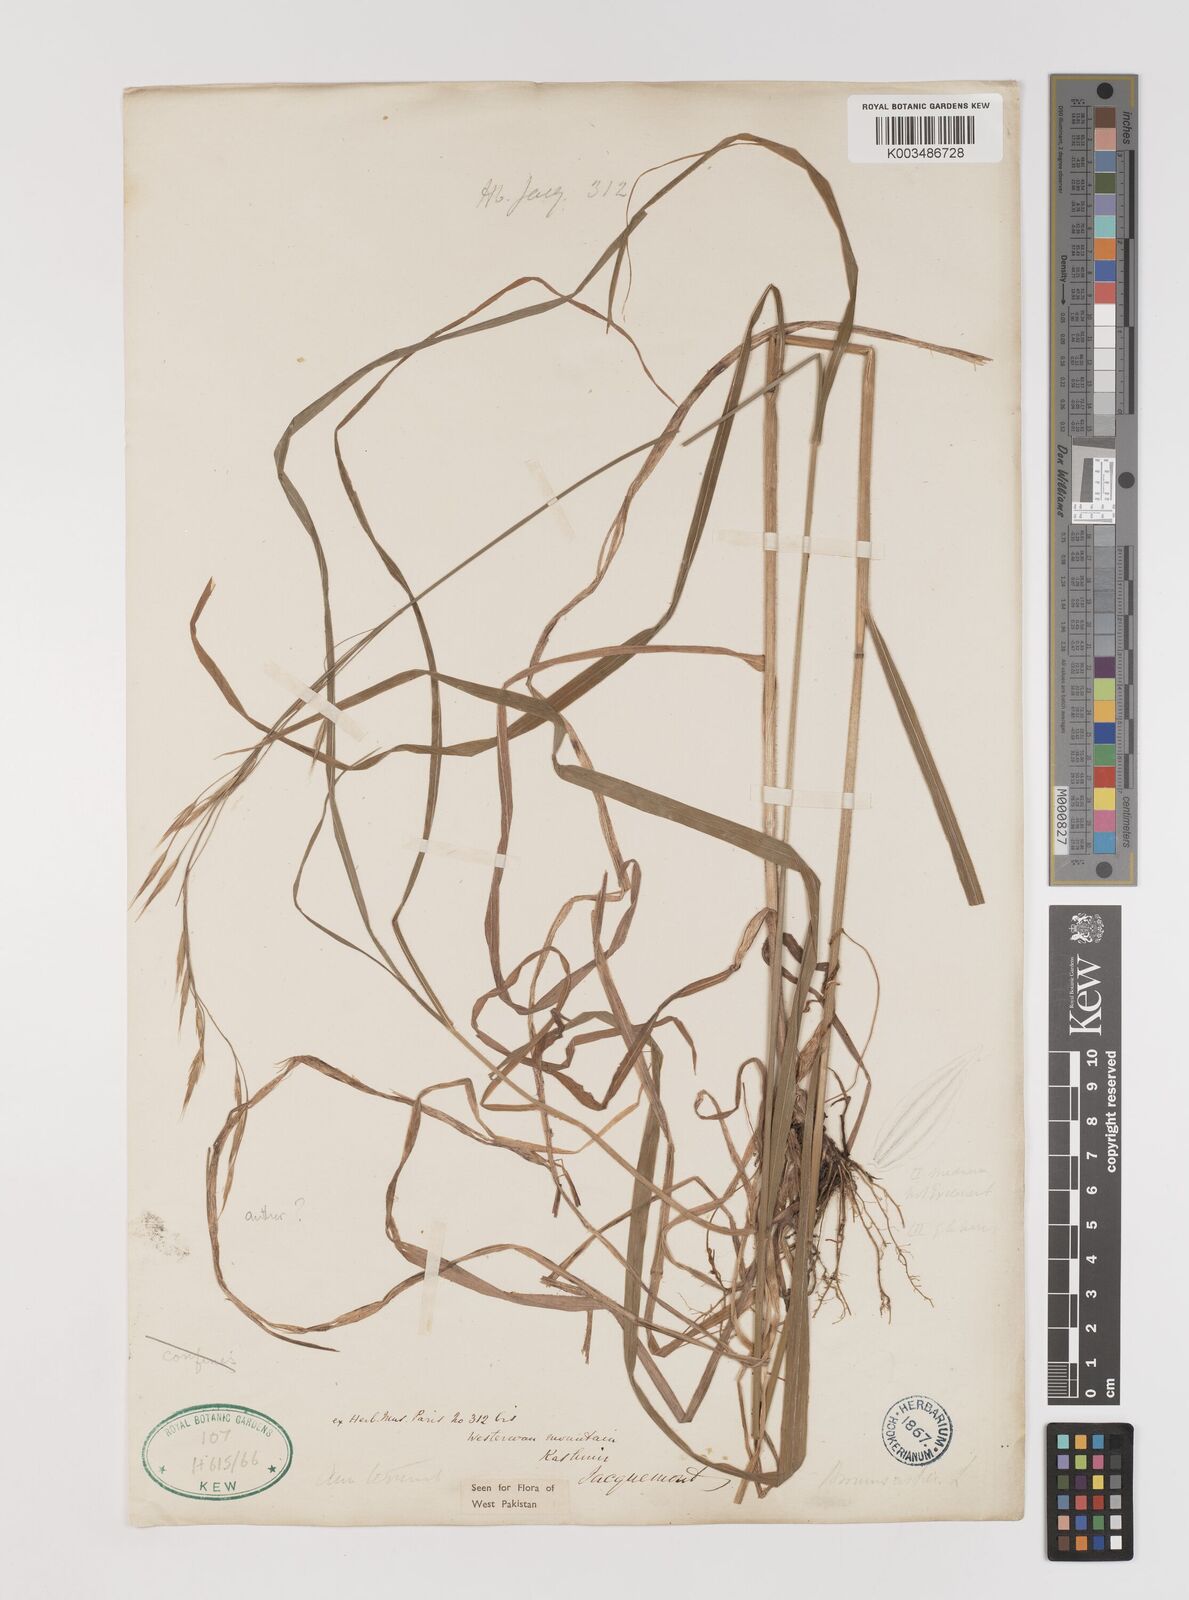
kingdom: Plantae
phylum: Tracheophyta
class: Liliopsida
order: Poales
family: Poaceae
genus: Brachypodium
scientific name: Brachypodium retusum
